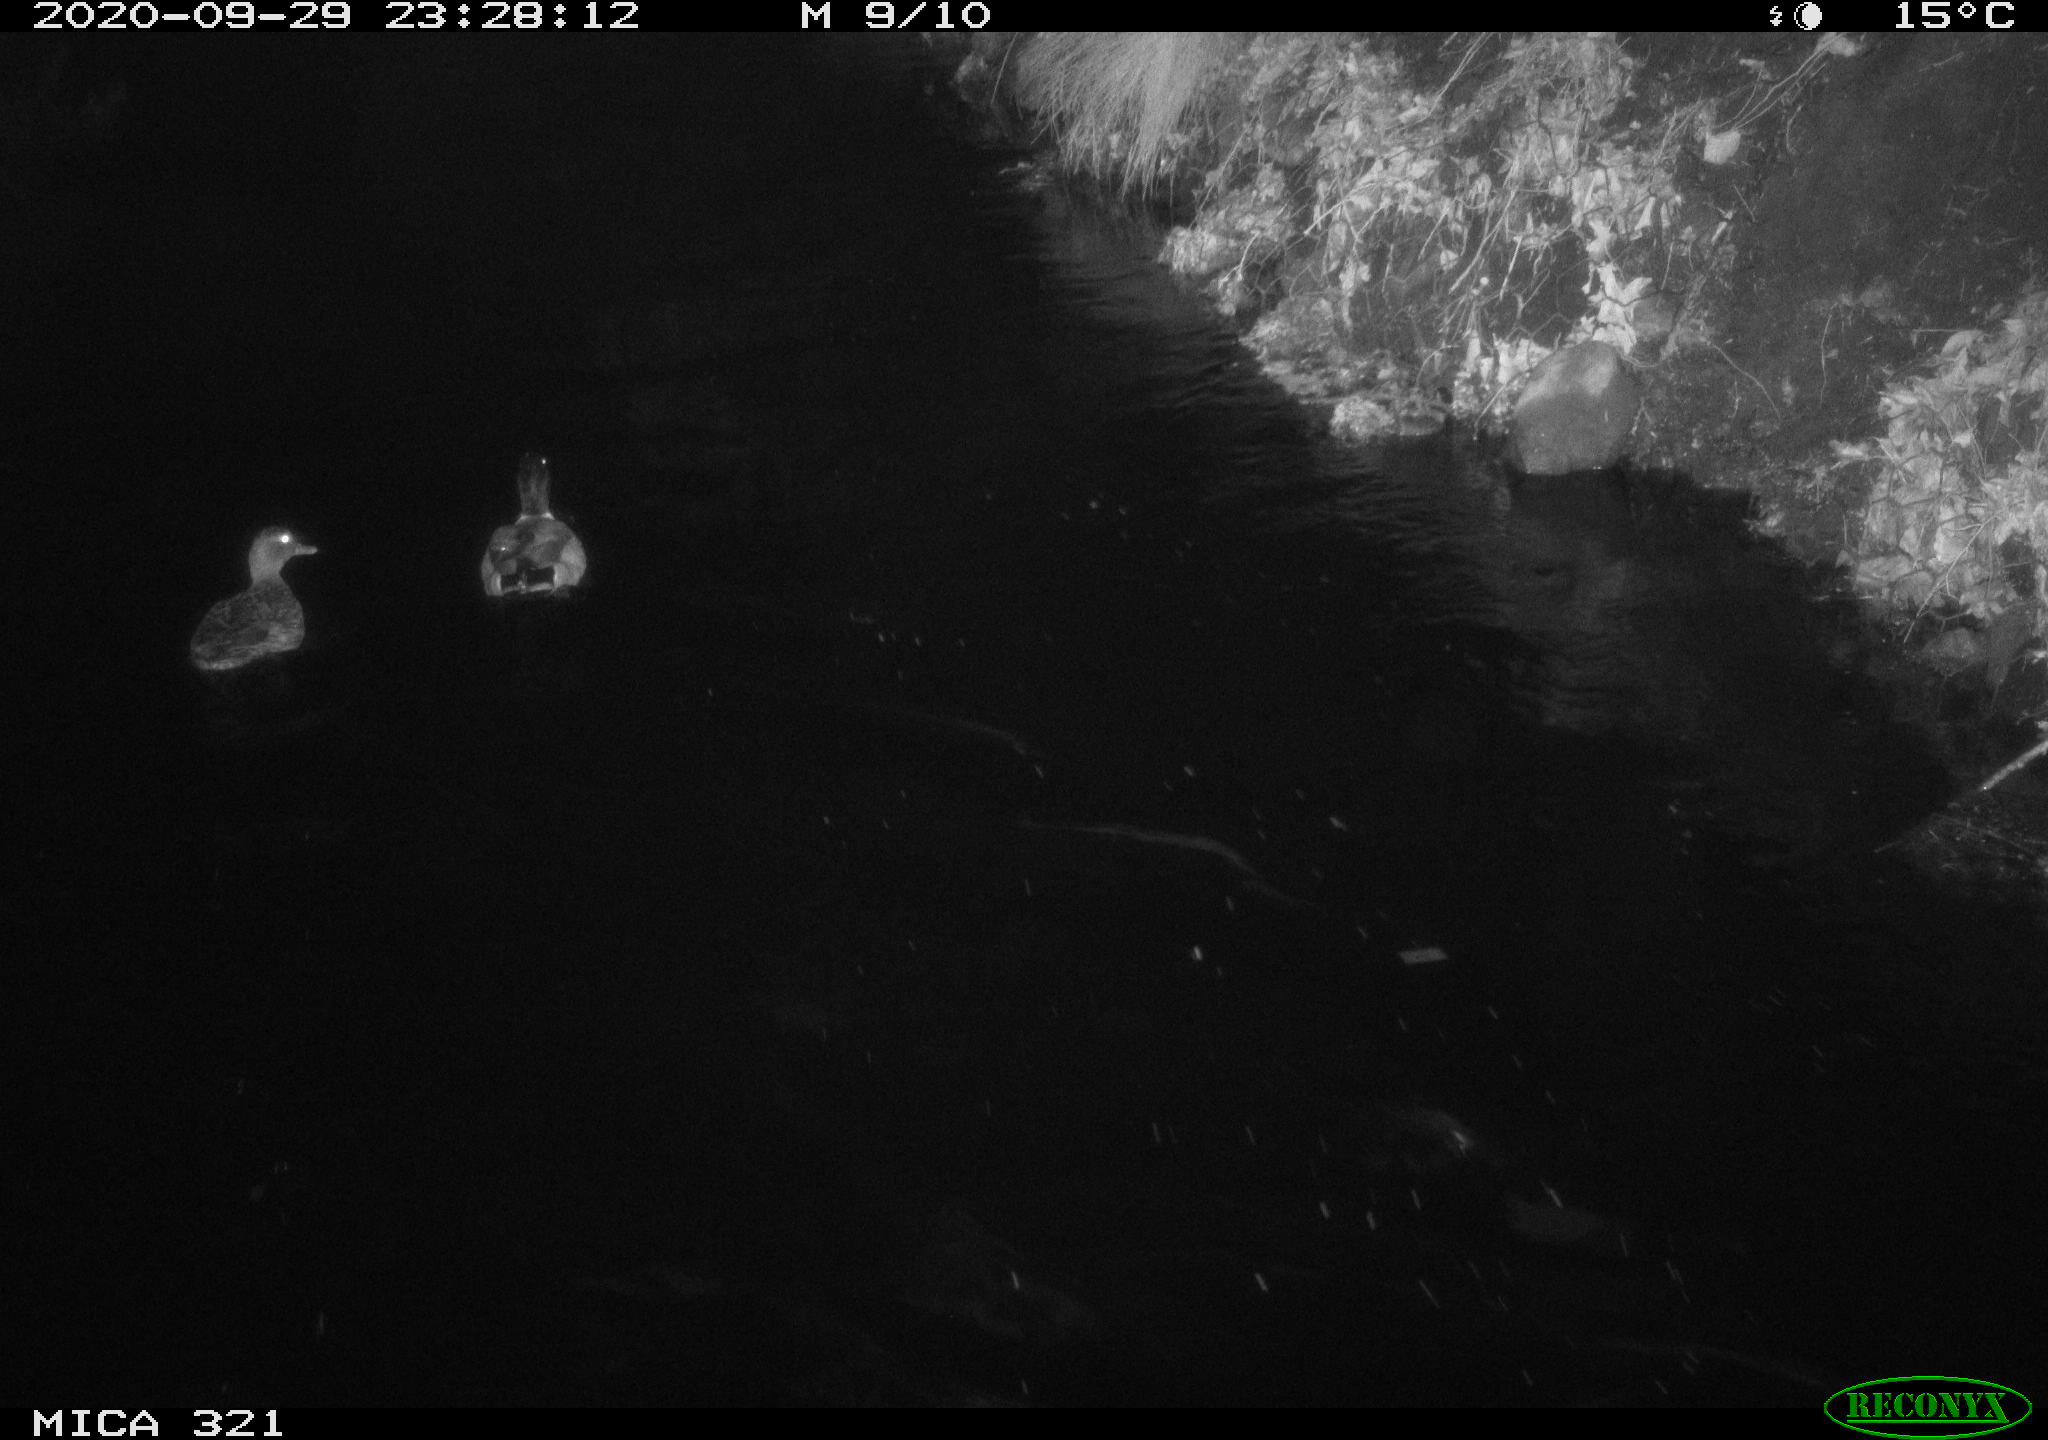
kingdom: Animalia
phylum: Chordata
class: Aves
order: Anseriformes
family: Anatidae
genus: Anas
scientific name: Anas platyrhynchos
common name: Mallard
